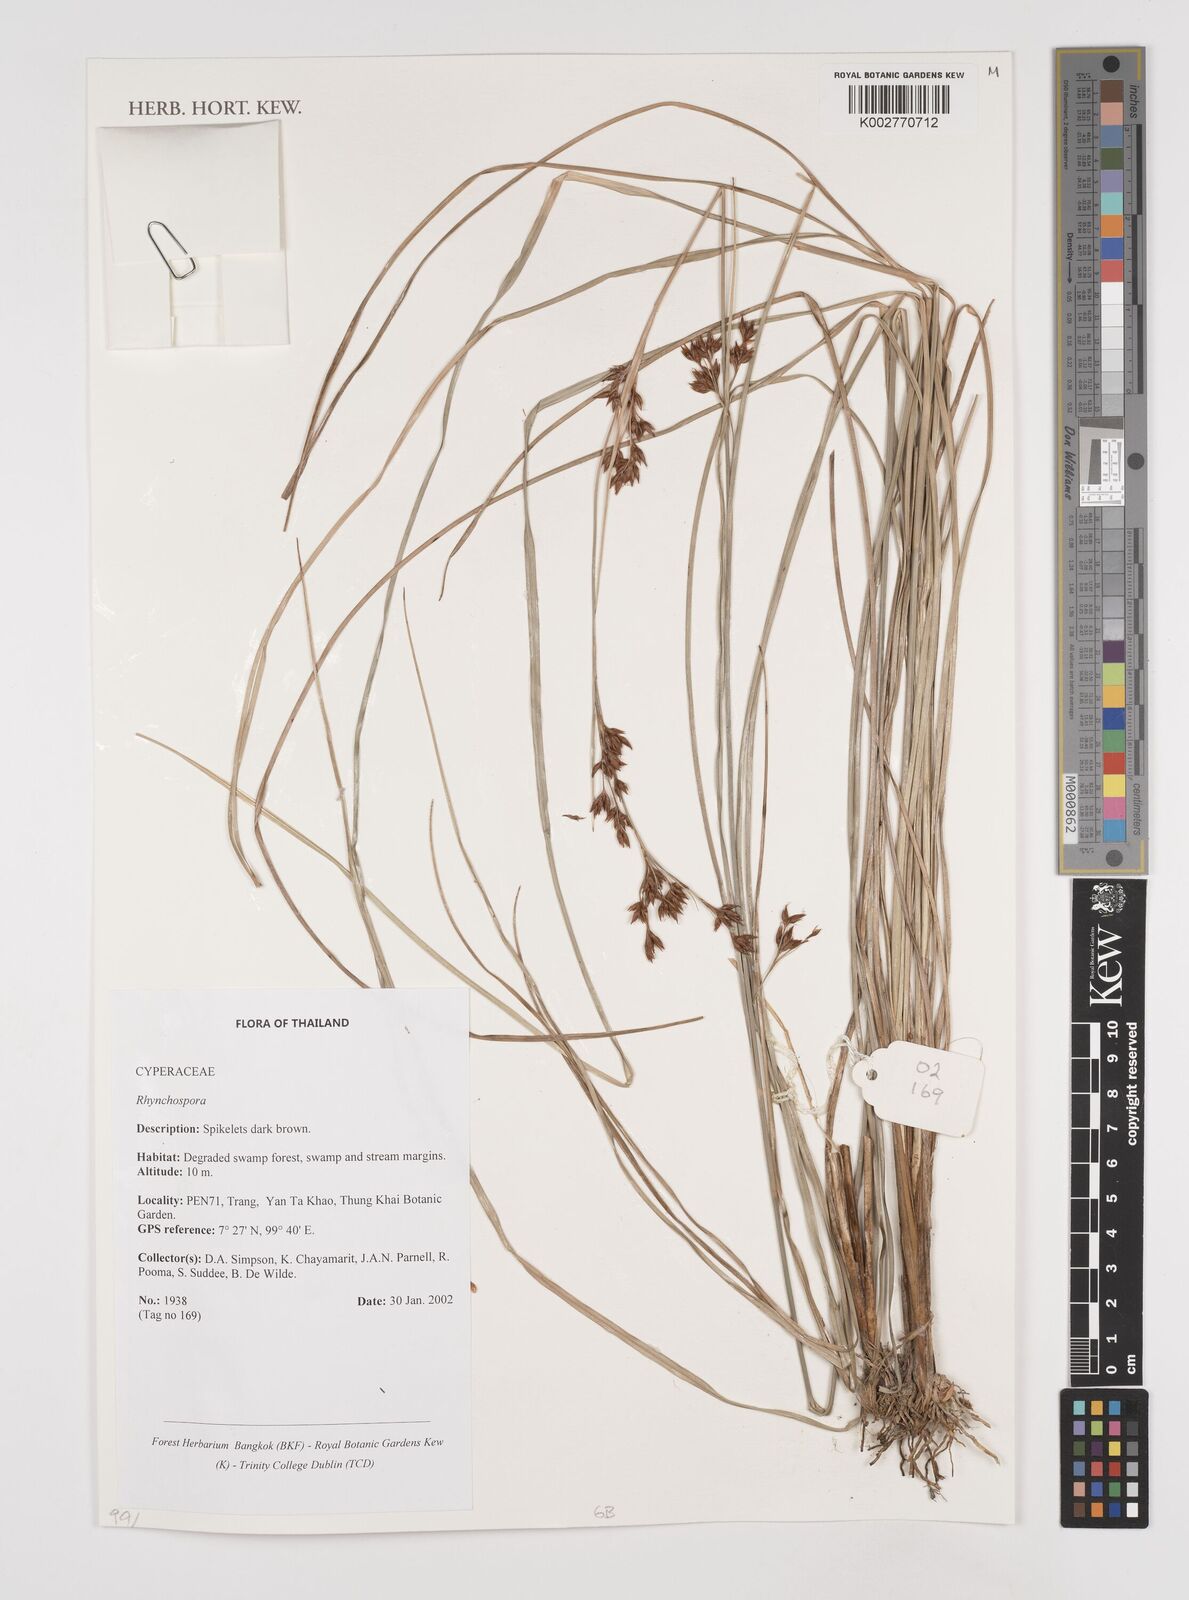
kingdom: Plantae
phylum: Tracheophyta
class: Liliopsida
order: Poales
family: Cyperaceae
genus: Rhynchospora
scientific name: Rhynchospora
